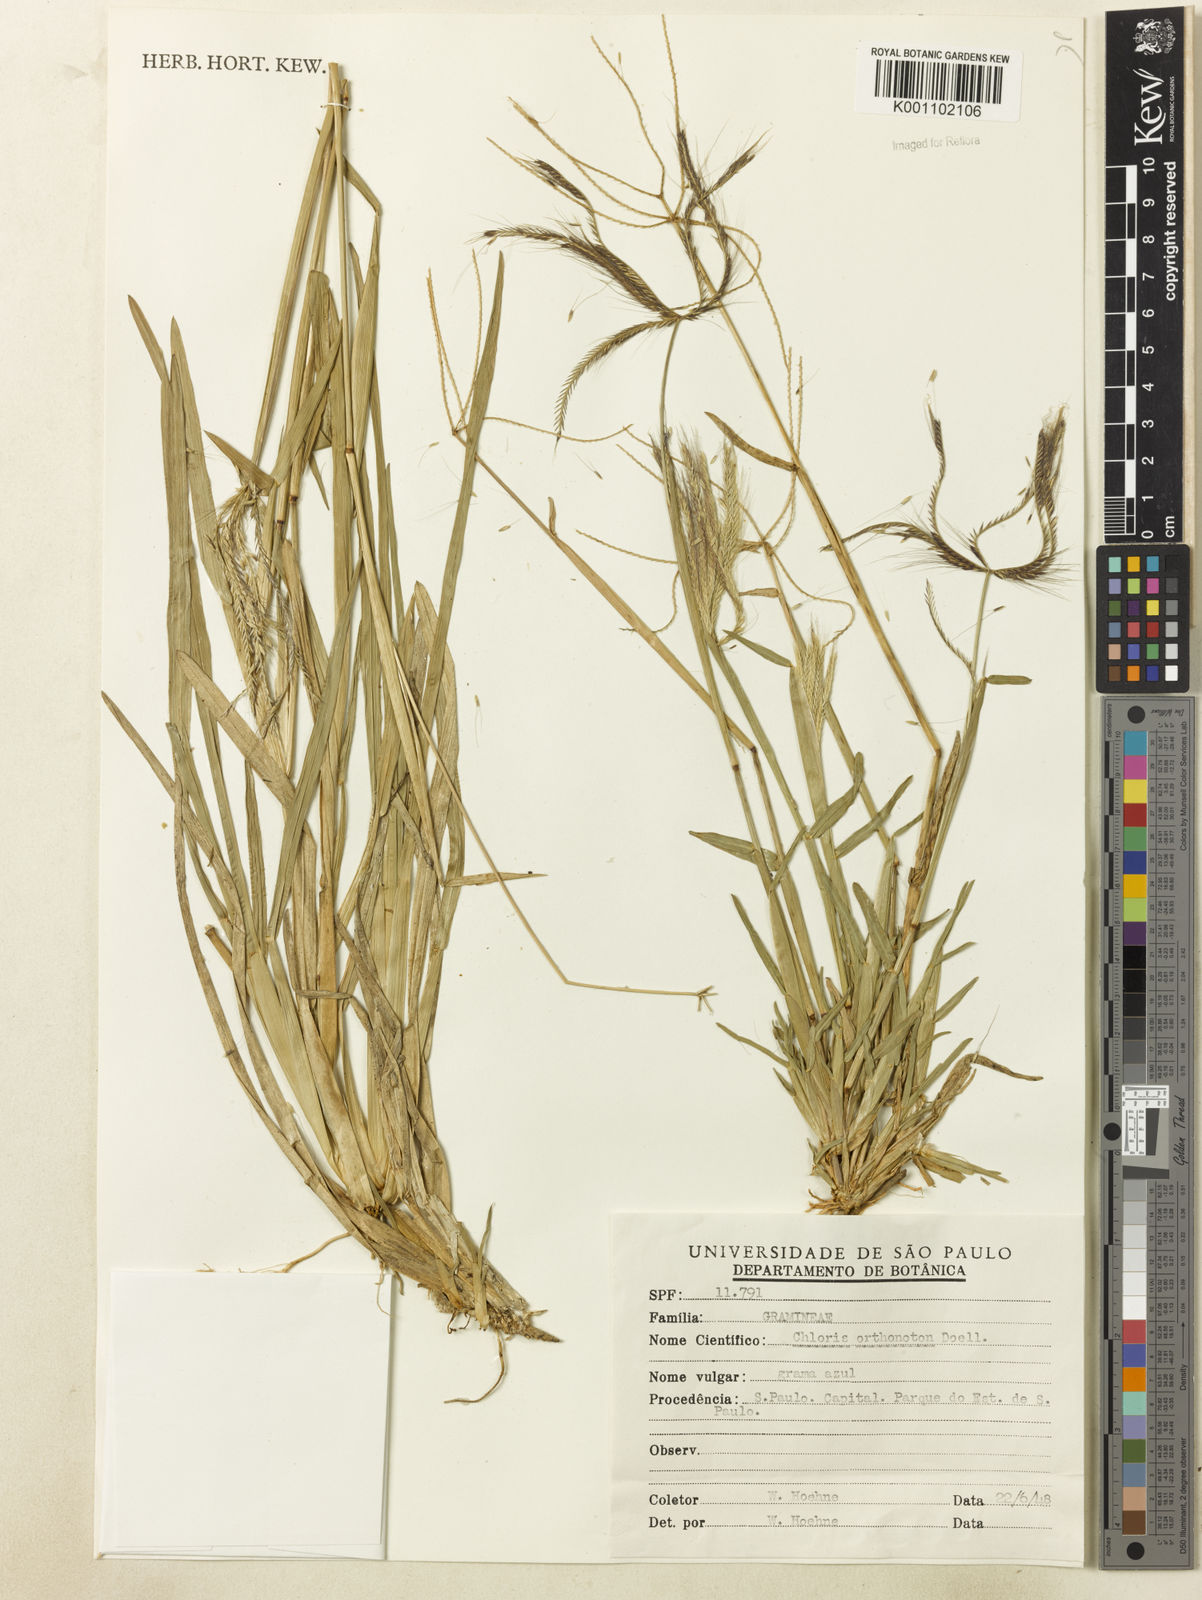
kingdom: Plantae
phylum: Tracheophyta
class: Liliopsida
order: Poales
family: Poaceae
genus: Chloris
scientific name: Chloris
